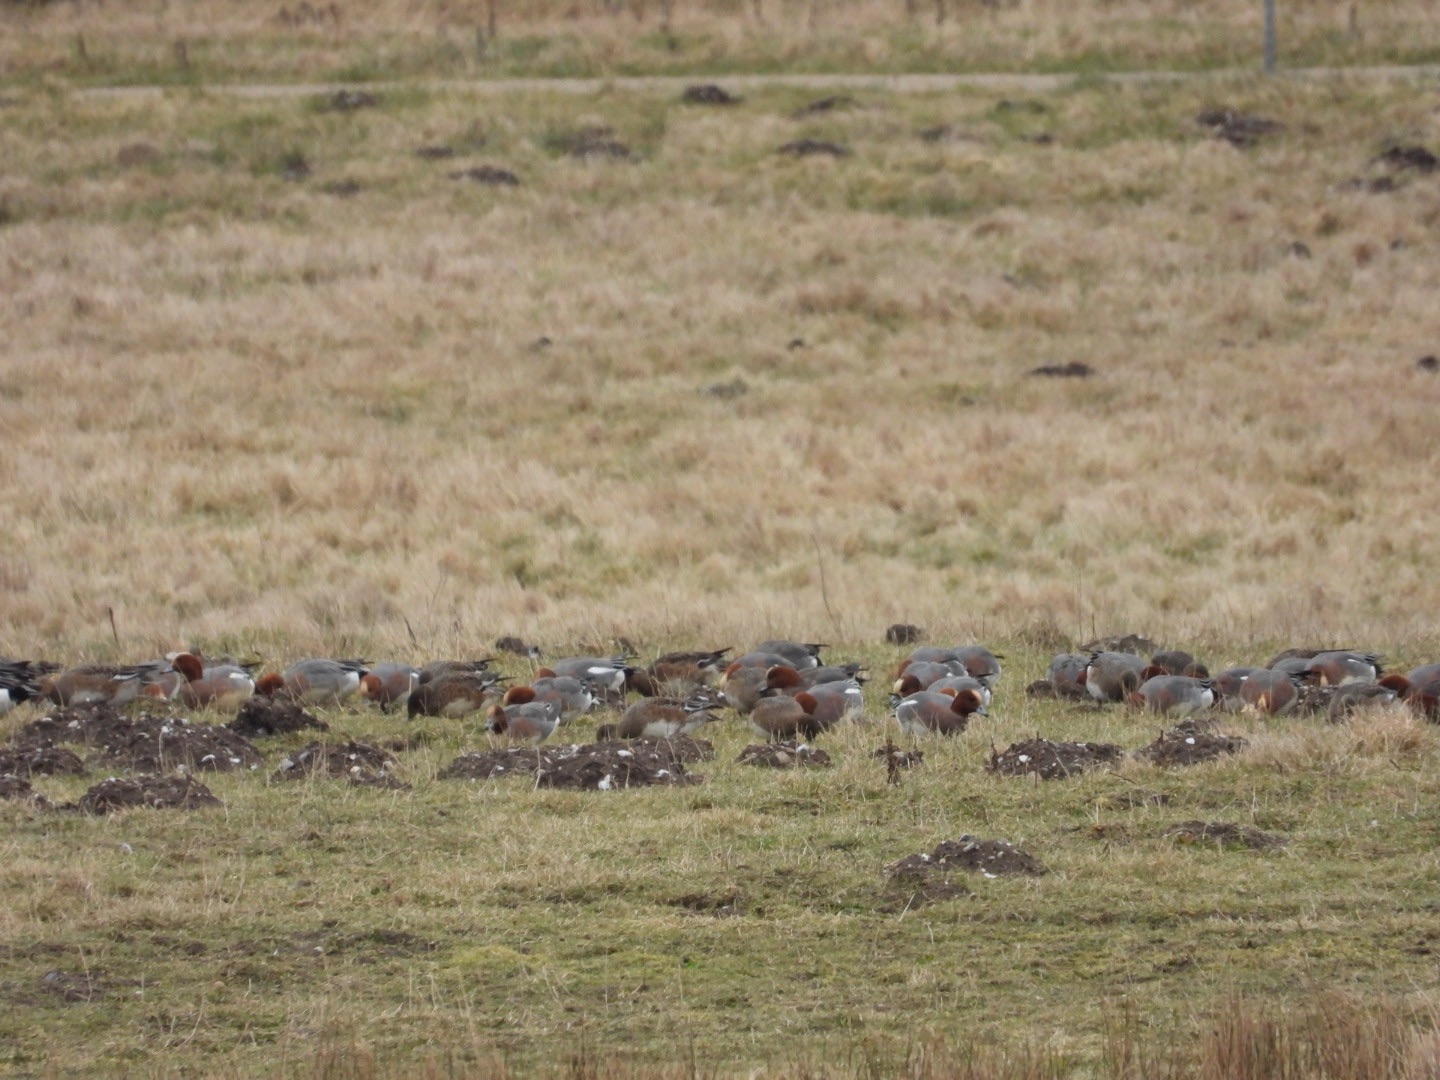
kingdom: Animalia
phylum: Chordata
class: Aves
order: Anseriformes
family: Anatidae
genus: Mareca
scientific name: Mareca penelope
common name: Pibeand
